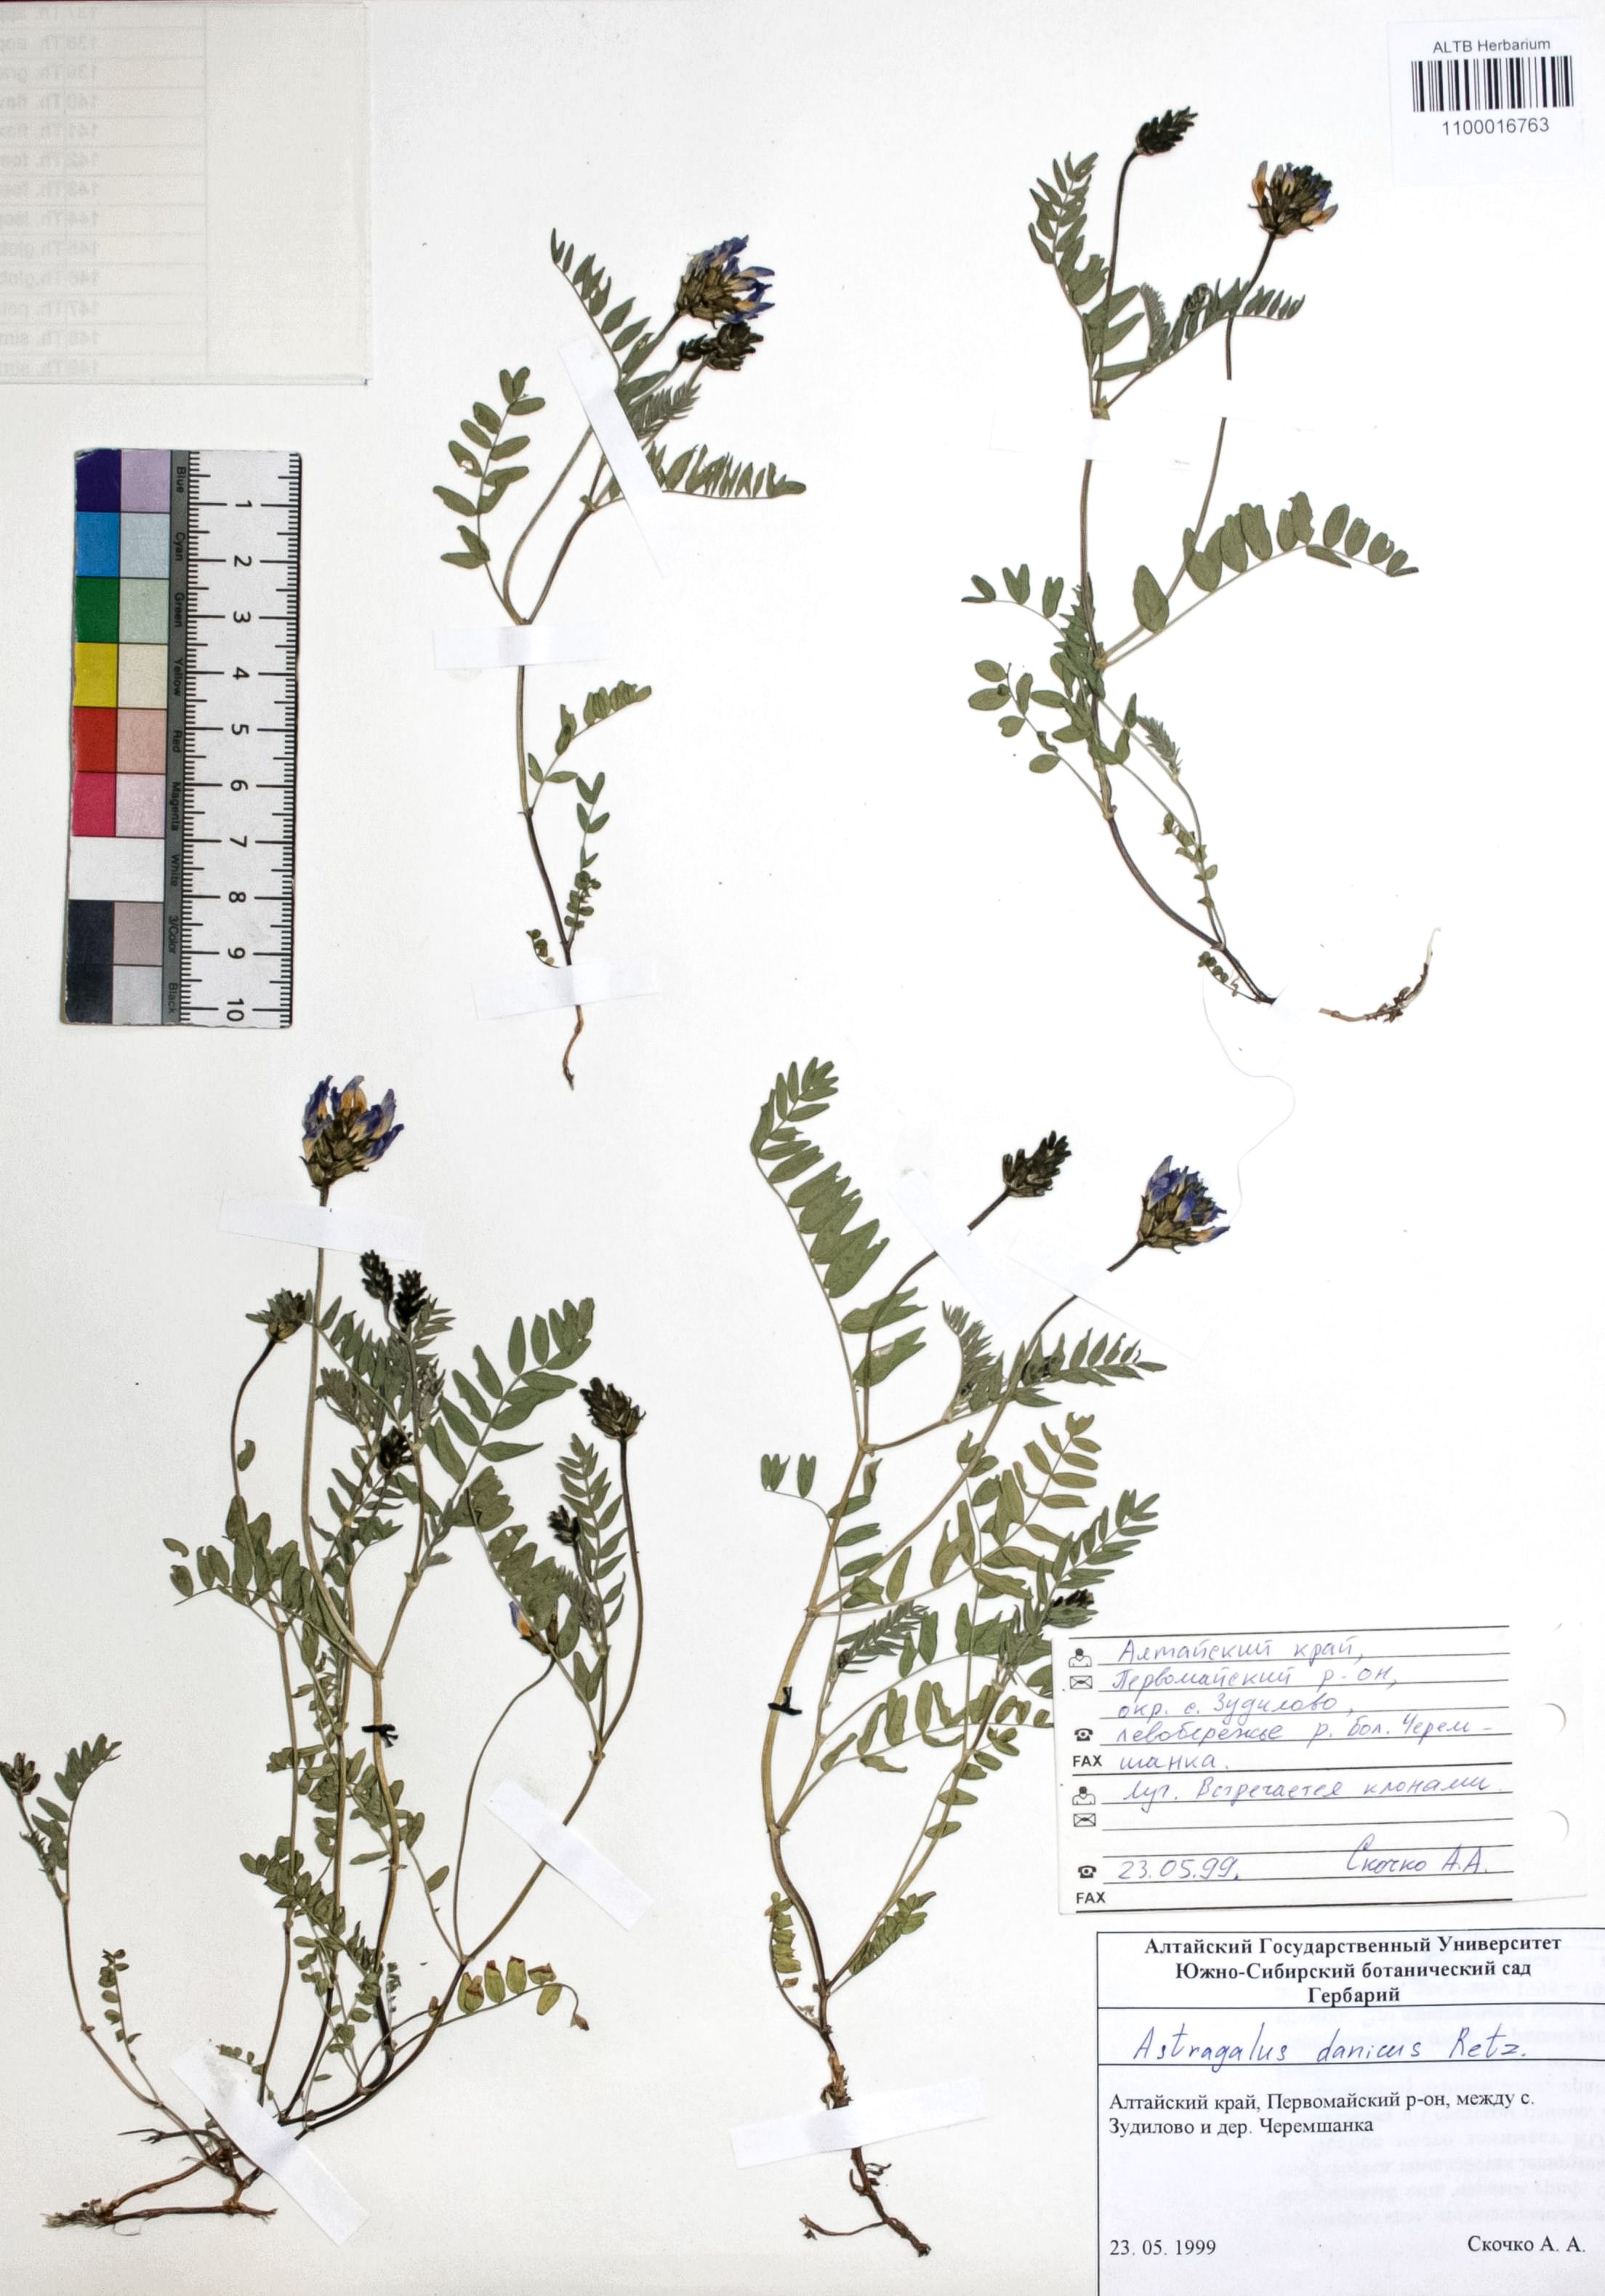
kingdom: Plantae
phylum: Tracheophyta
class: Magnoliopsida
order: Fabales
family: Fabaceae
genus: Astragalus
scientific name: Astragalus danicus
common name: Purple milk-vetch
